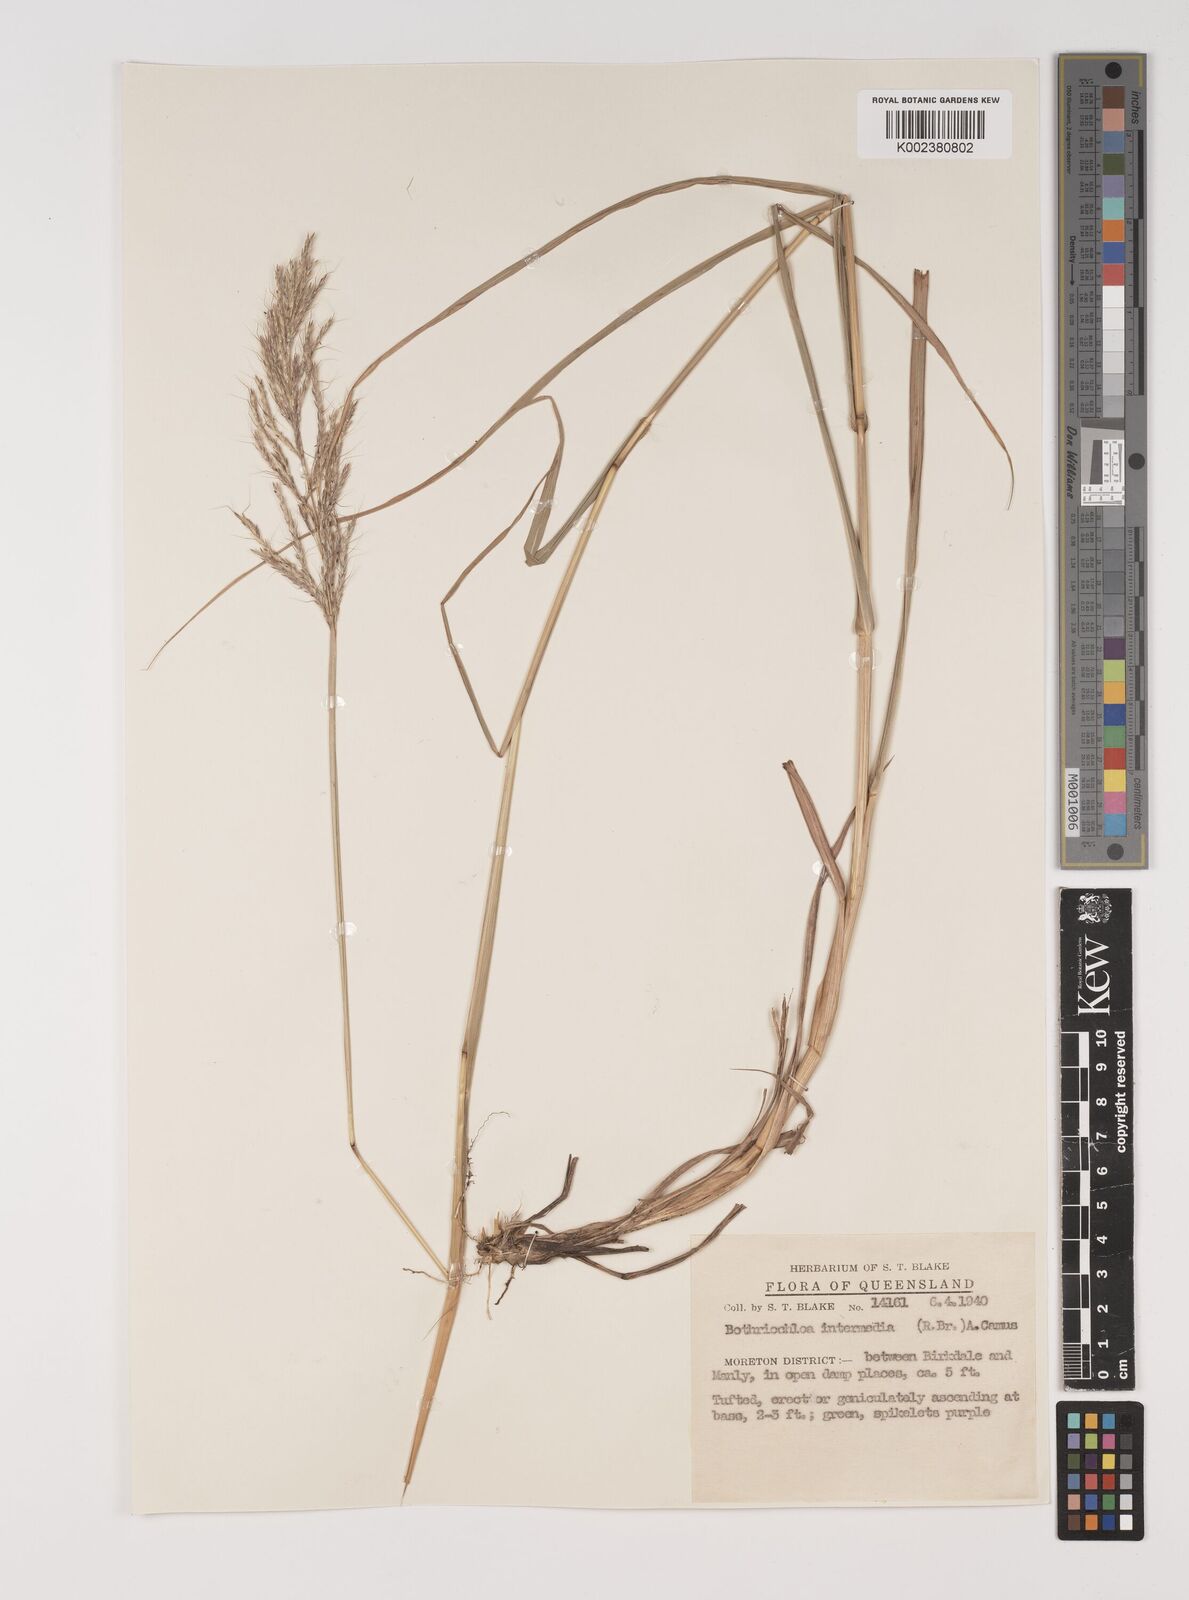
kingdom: Plantae
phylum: Tracheophyta
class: Liliopsida
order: Poales
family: Poaceae
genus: Bothriochloa
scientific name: Bothriochloa bladhii
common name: Caucasian bluestem
